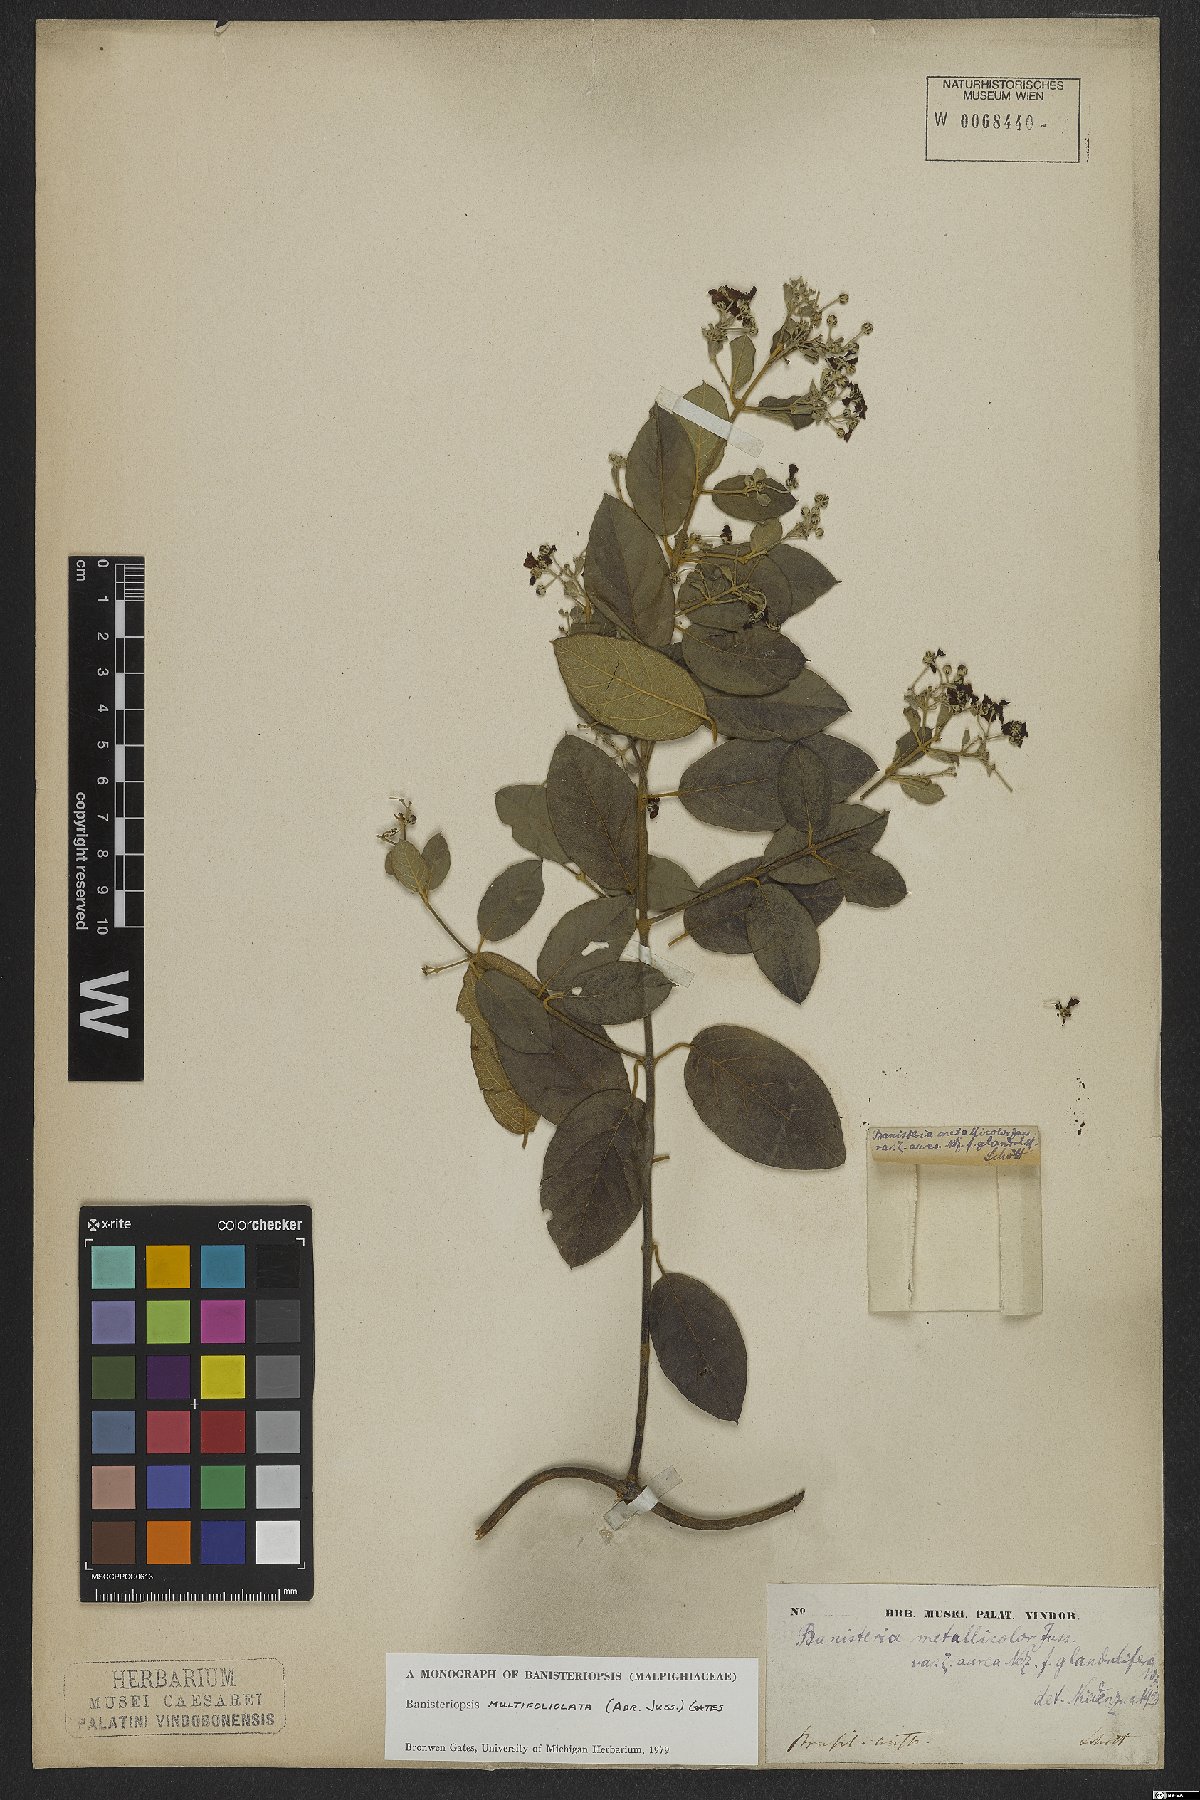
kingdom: Plantae
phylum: Tracheophyta
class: Magnoliopsida
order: Malpighiales
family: Malpighiaceae
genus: Banisteriopsis
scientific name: Banisteriopsis multifoliolata
